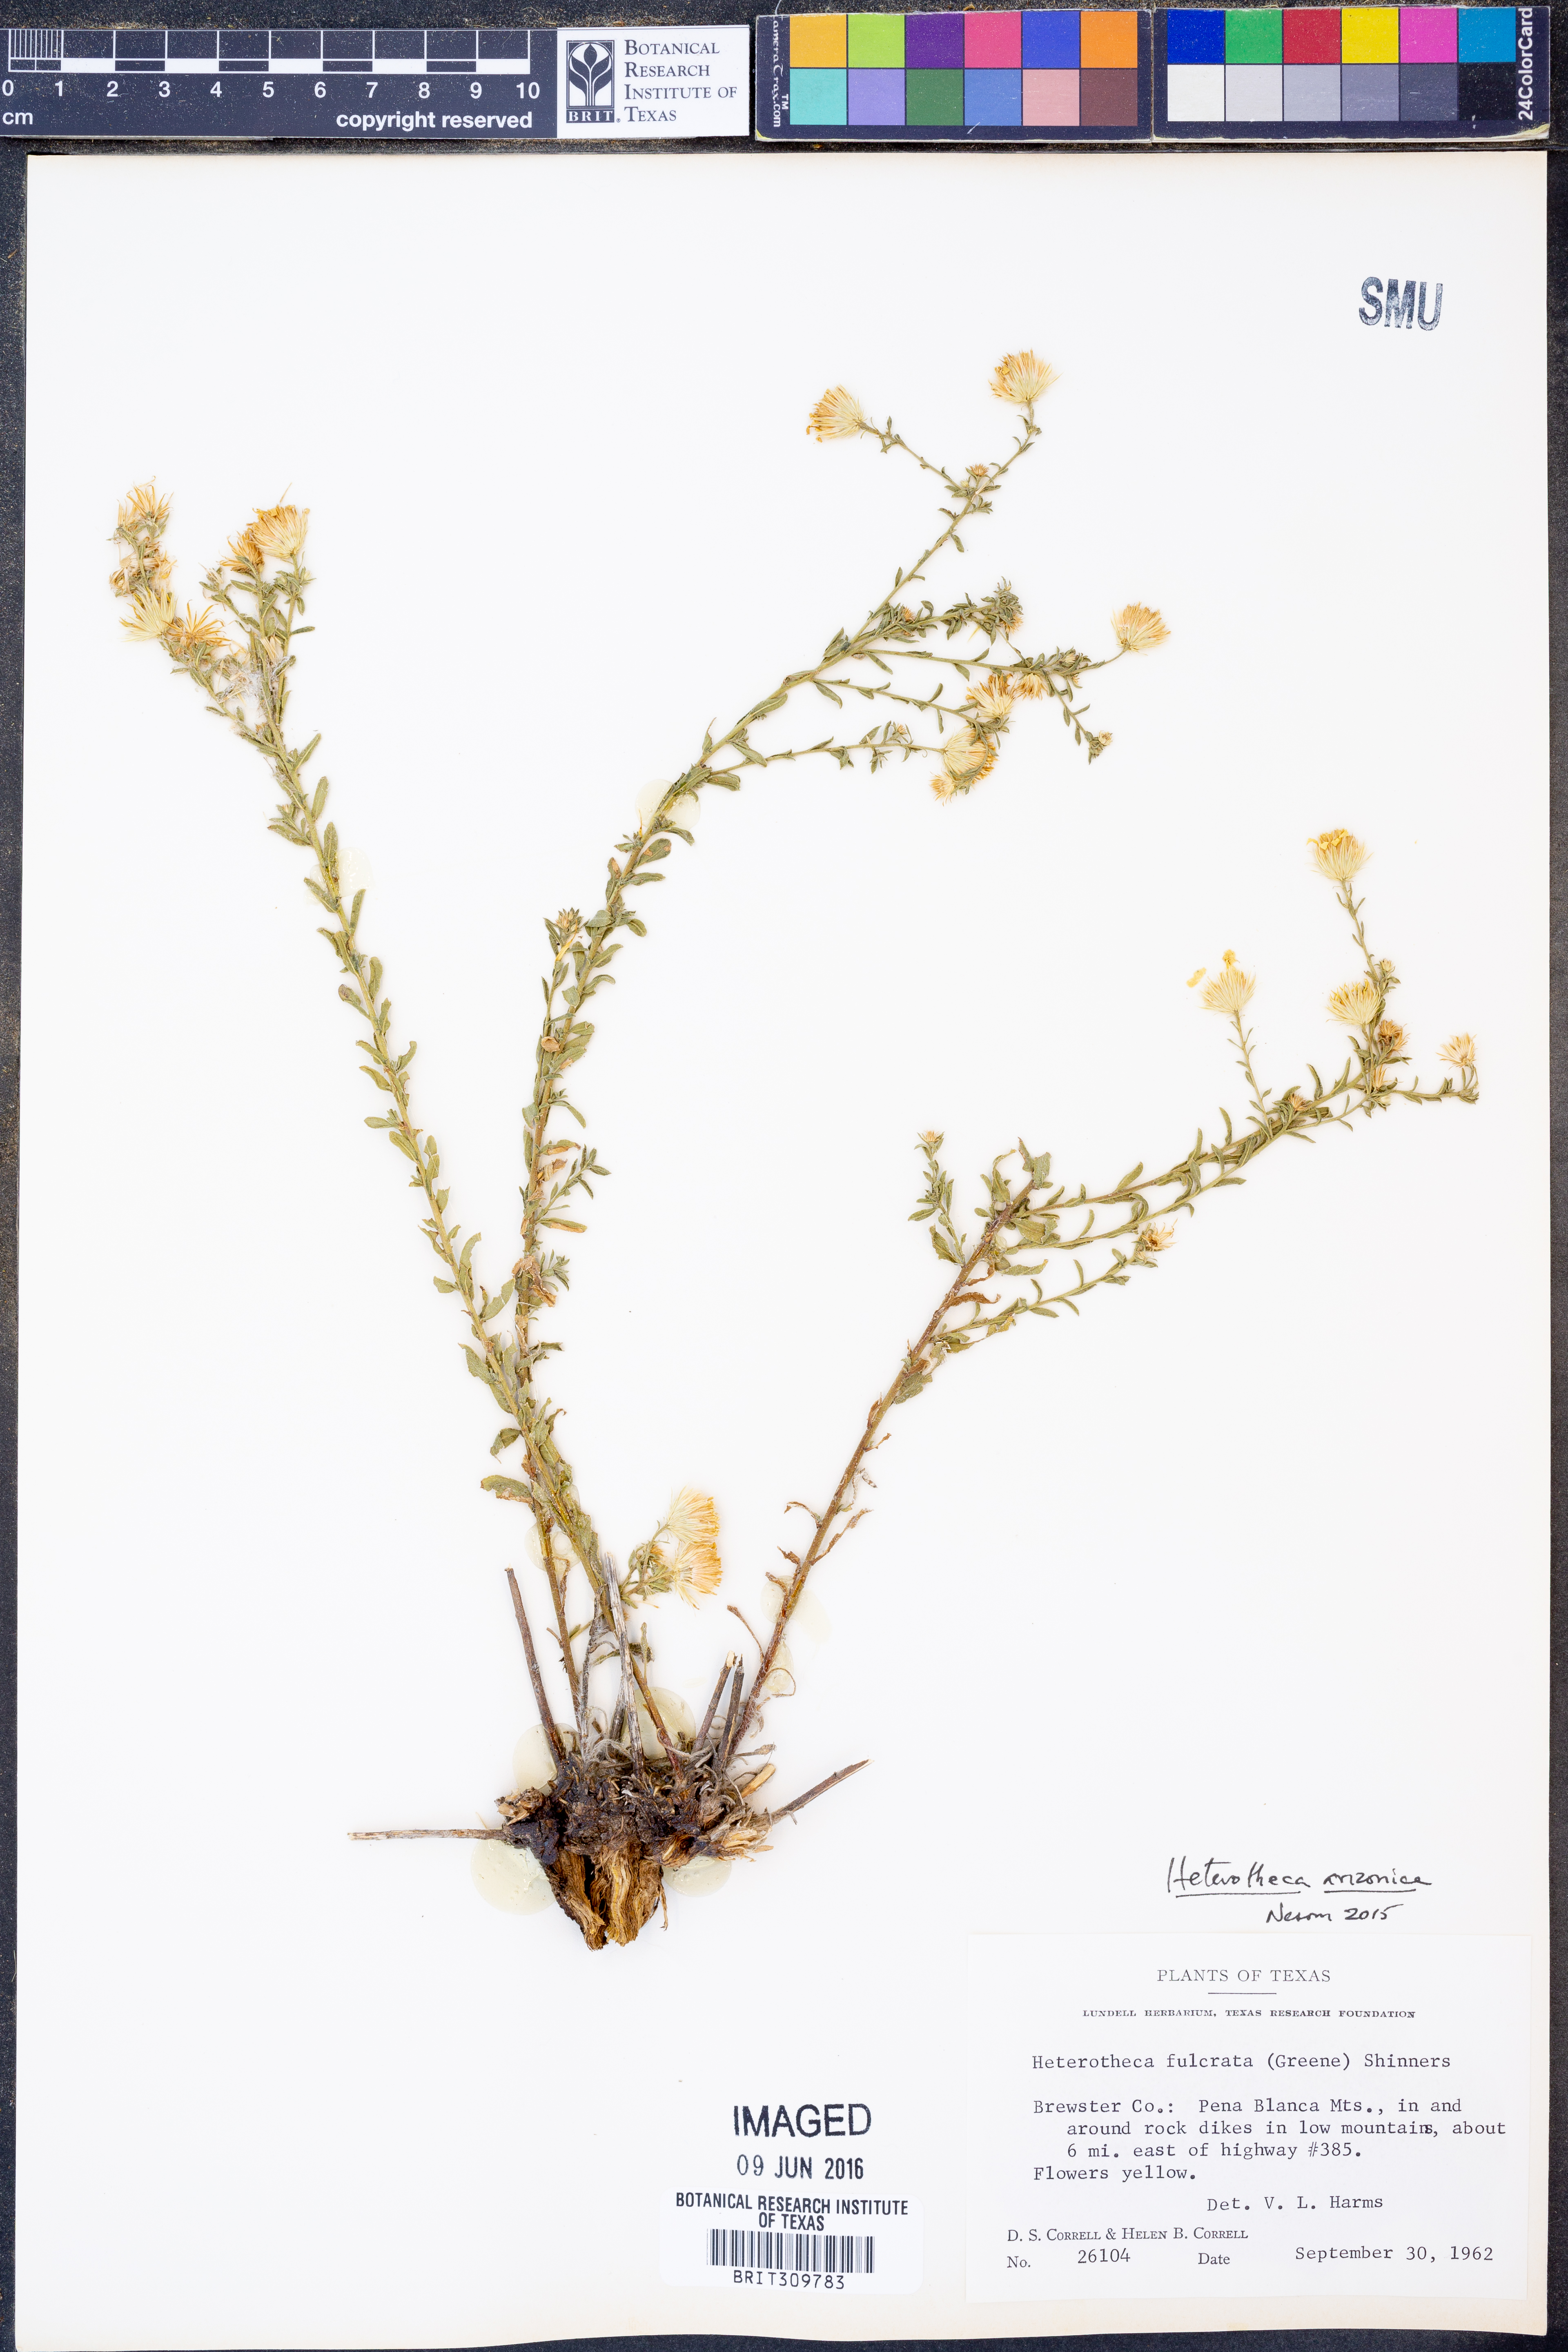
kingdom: Plantae
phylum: Tracheophyta
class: Magnoliopsida
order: Asterales
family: Asteraceae
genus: Heterotheca
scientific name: Heterotheca arizonica
